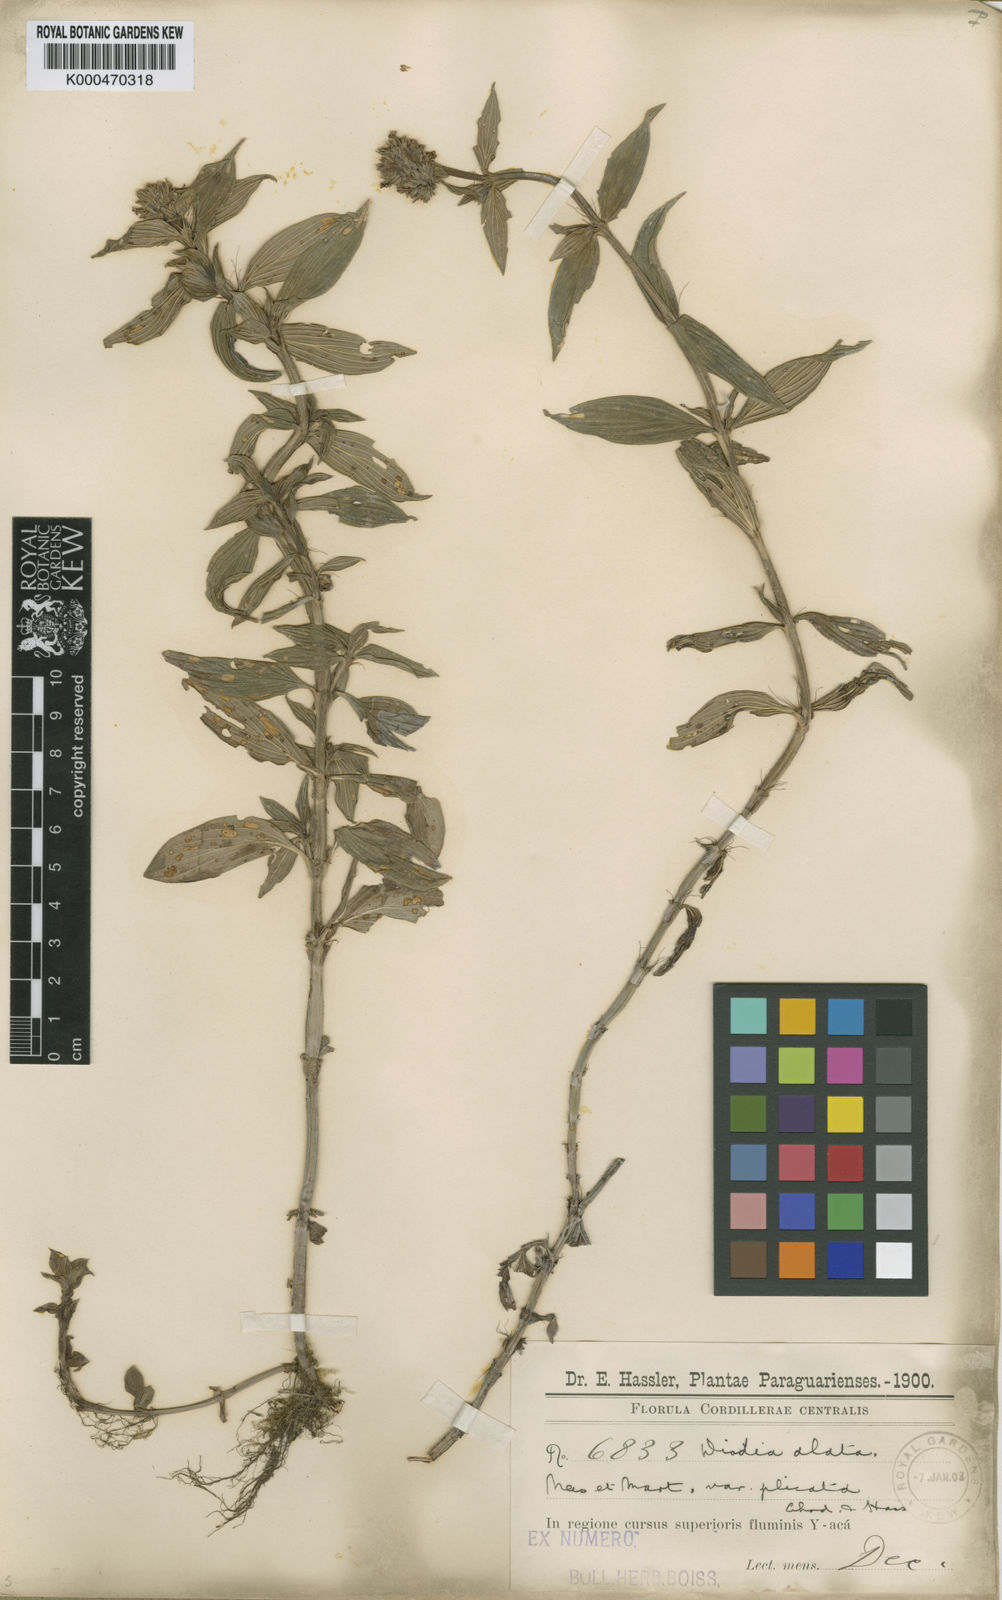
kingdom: Plantae
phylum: Tracheophyta
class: Magnoliopsida
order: Gentianales
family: Rubiaceae
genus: Galianthe
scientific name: Galianthe palustris
